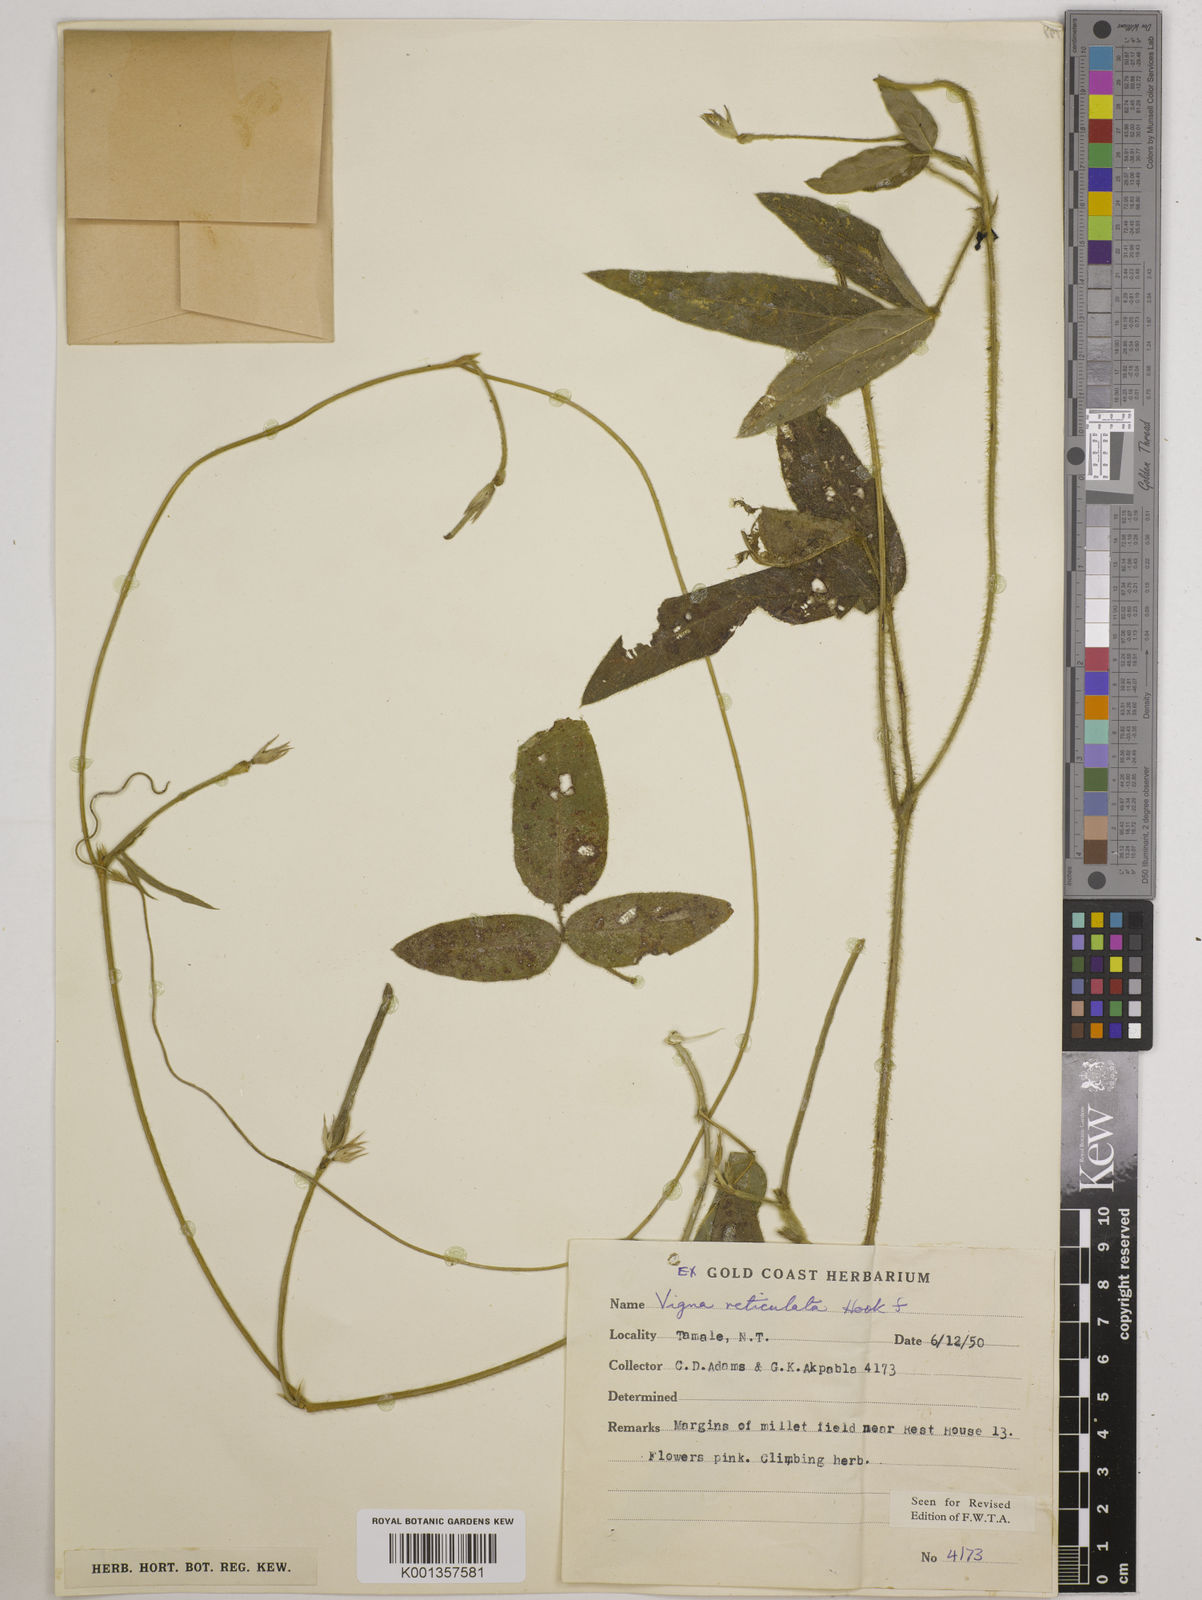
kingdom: Plantae
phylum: Tracheophyta
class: Magnoliopsida
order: Fabales
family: Fabaceae
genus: Vigna
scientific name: Vigna reticulata
